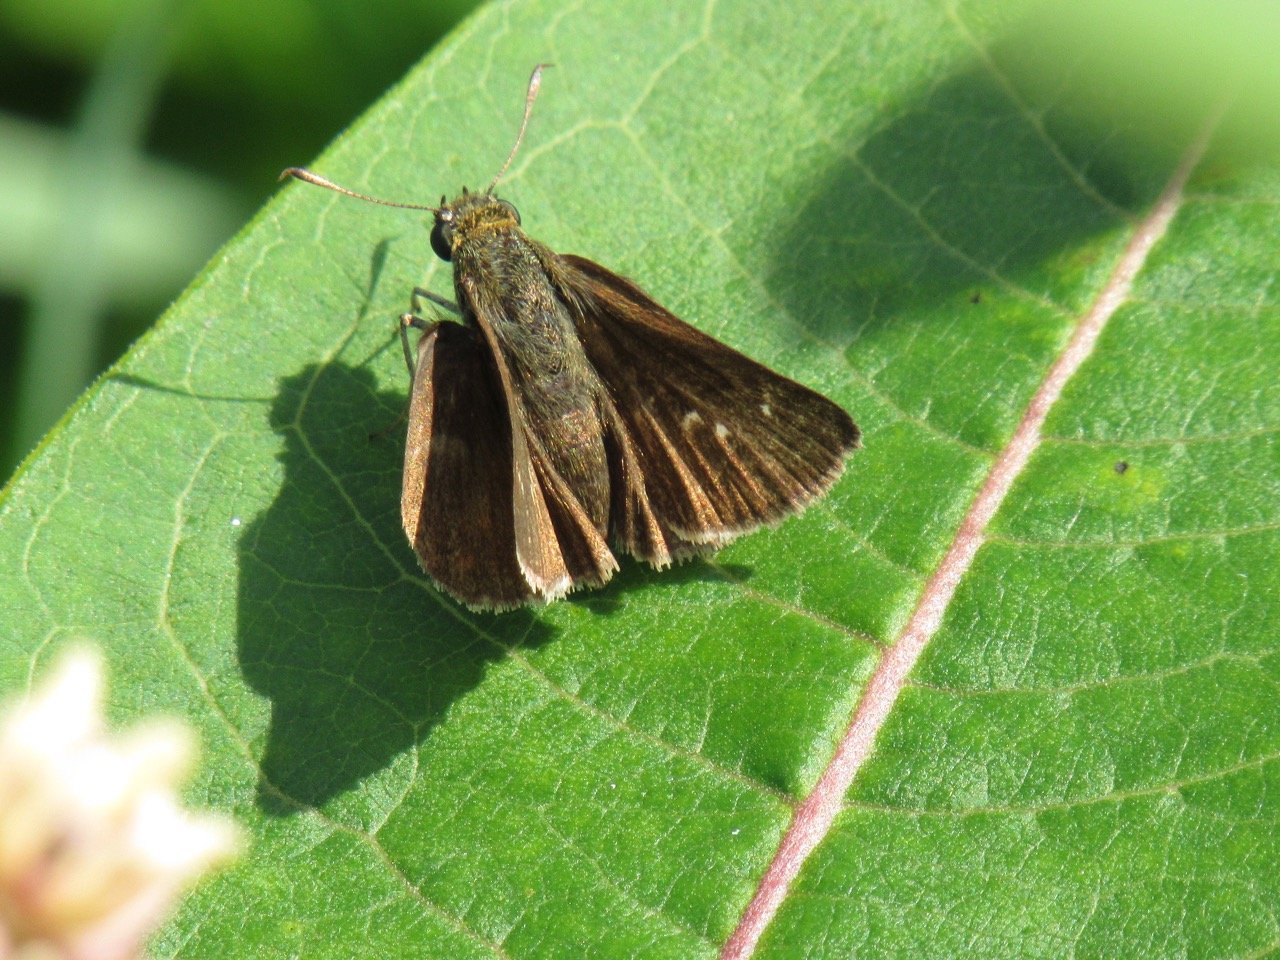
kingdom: Animalia
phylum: Arthropoda
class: Insecta
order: Lepidoptera
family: Hesperiidae
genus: Euphyes
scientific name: Euphyes vestris
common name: Dun Skipper
